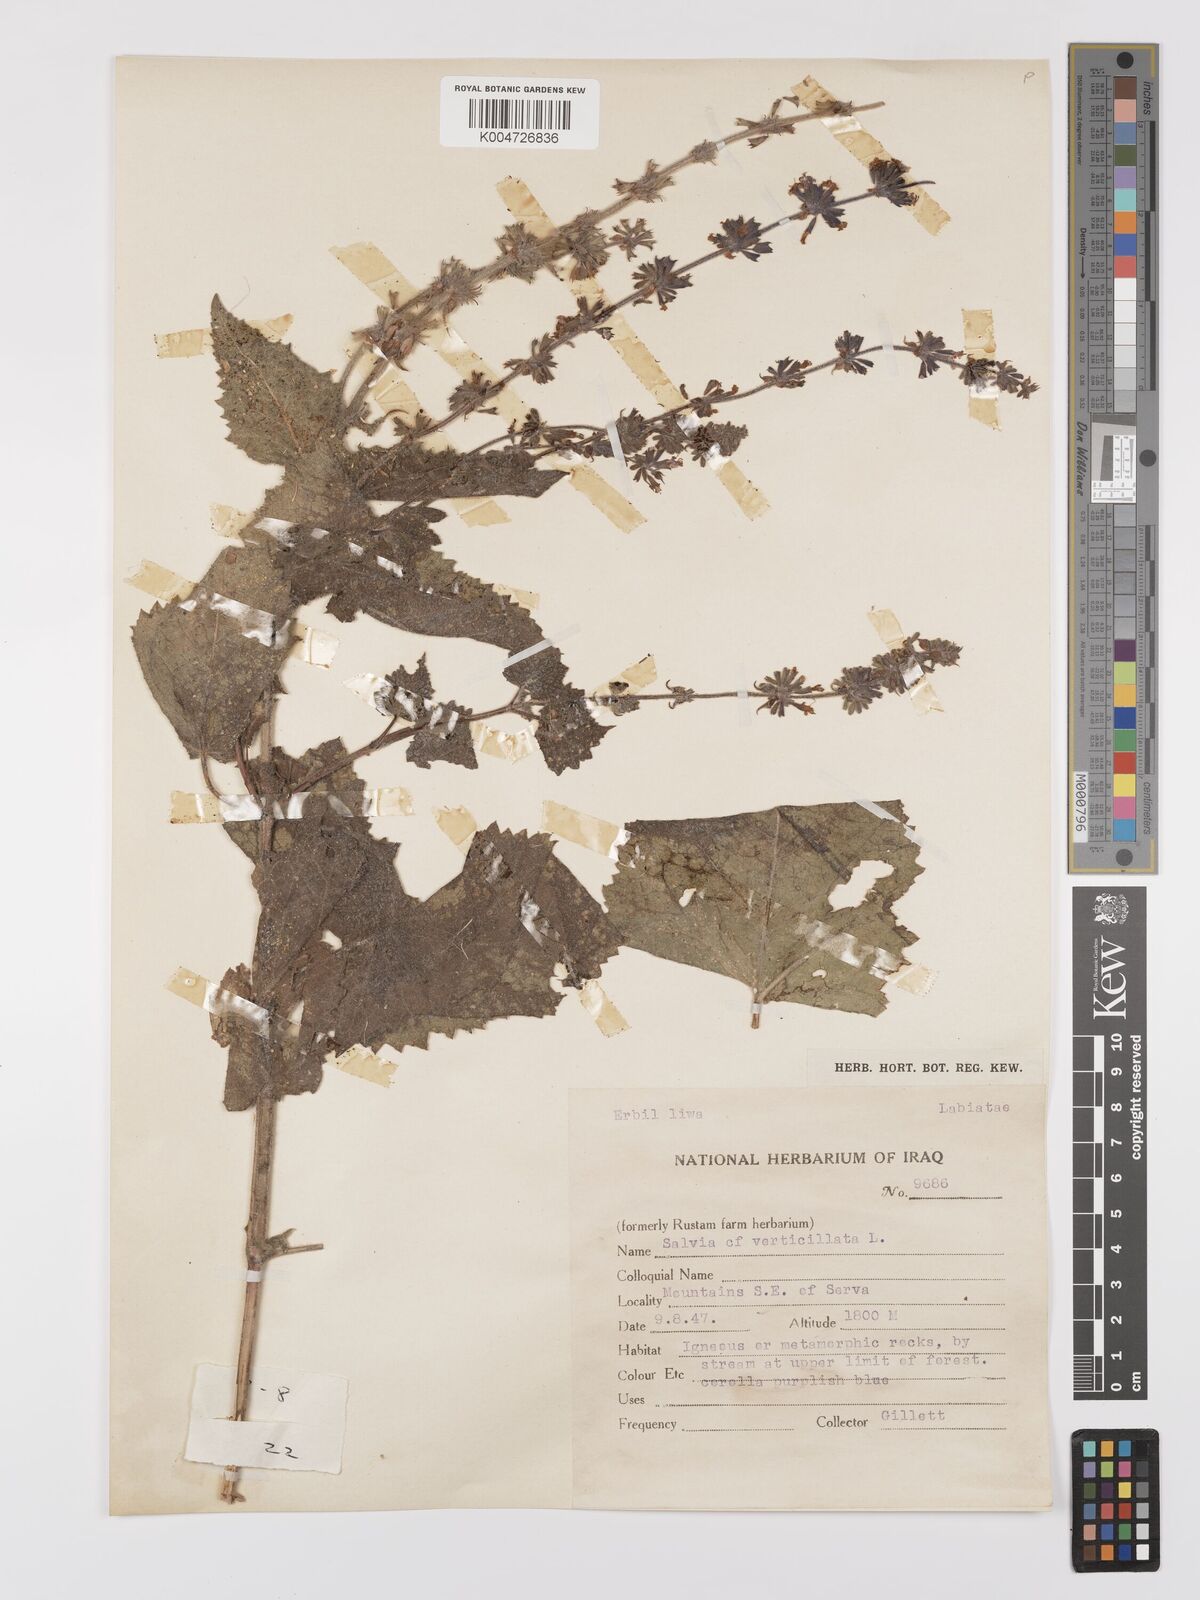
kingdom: Plantae
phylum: Tracheophyta
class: Magnoliopsida
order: Lamiales
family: Lamiaceae
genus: Salvia
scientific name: Salvia
